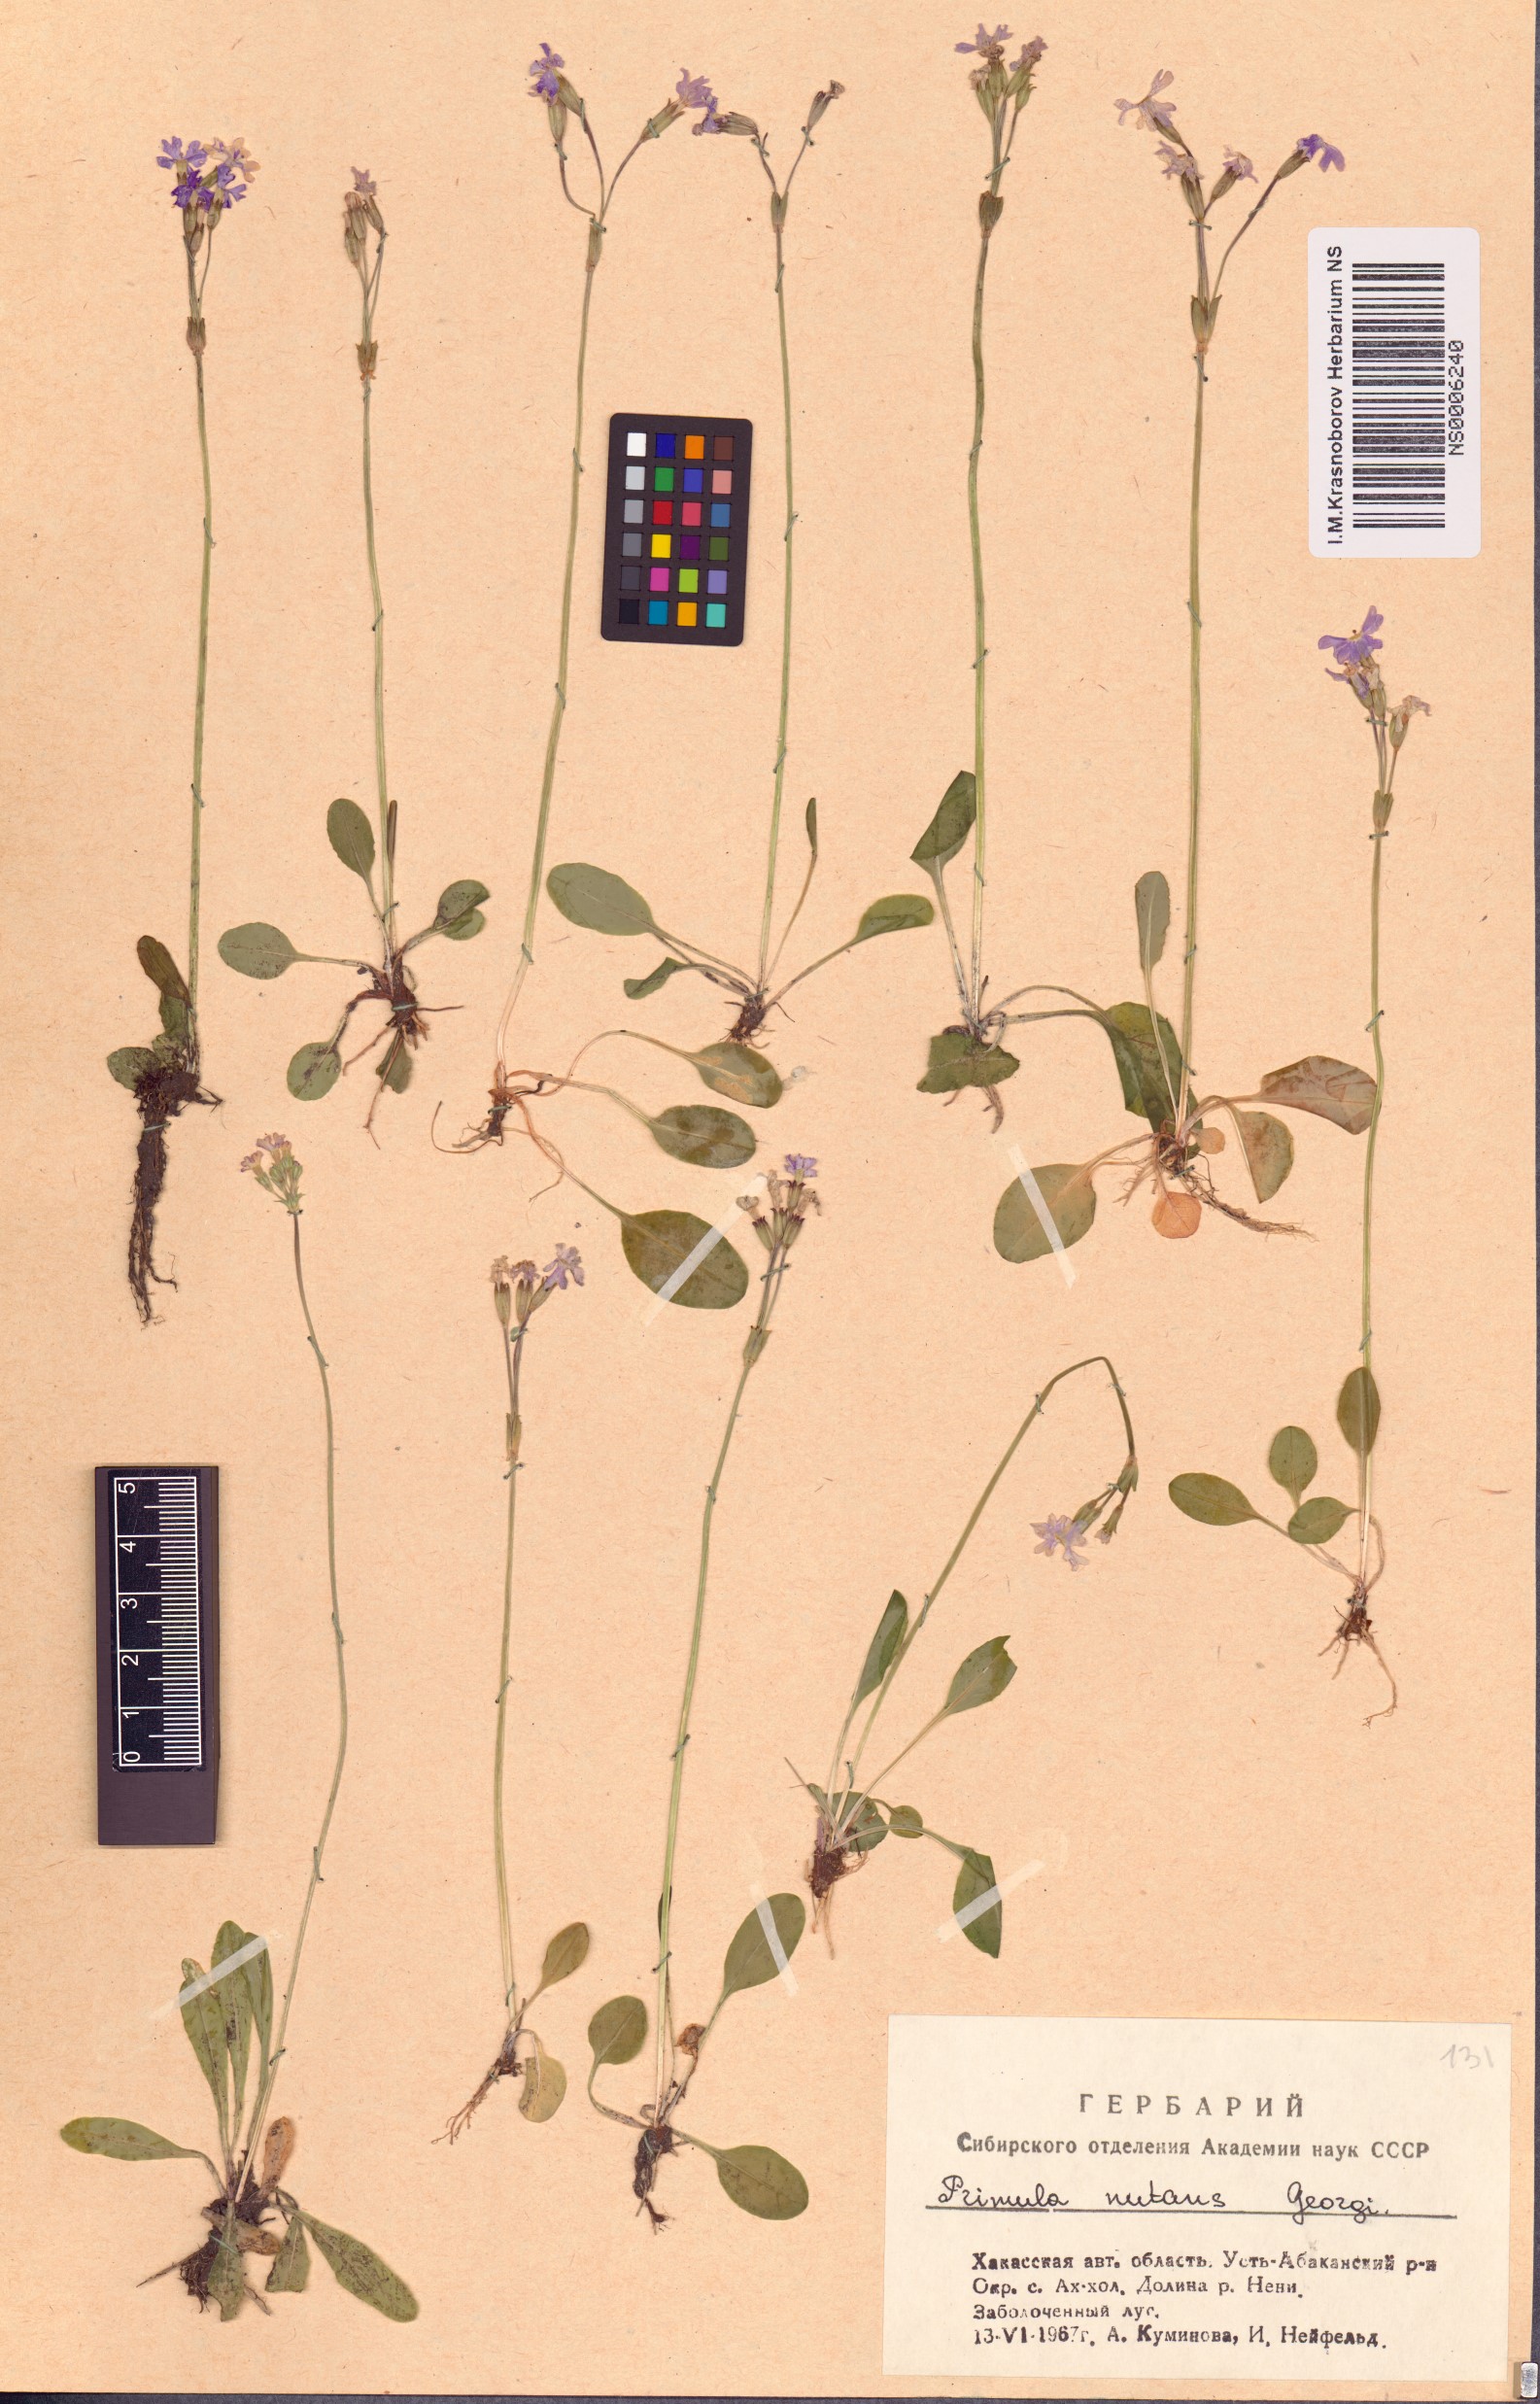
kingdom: Plantae
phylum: Tracheophyta
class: Magnoliopsida
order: Ericales
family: Primulaceae
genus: Primula
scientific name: Primula nutans
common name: Siberian primrose
